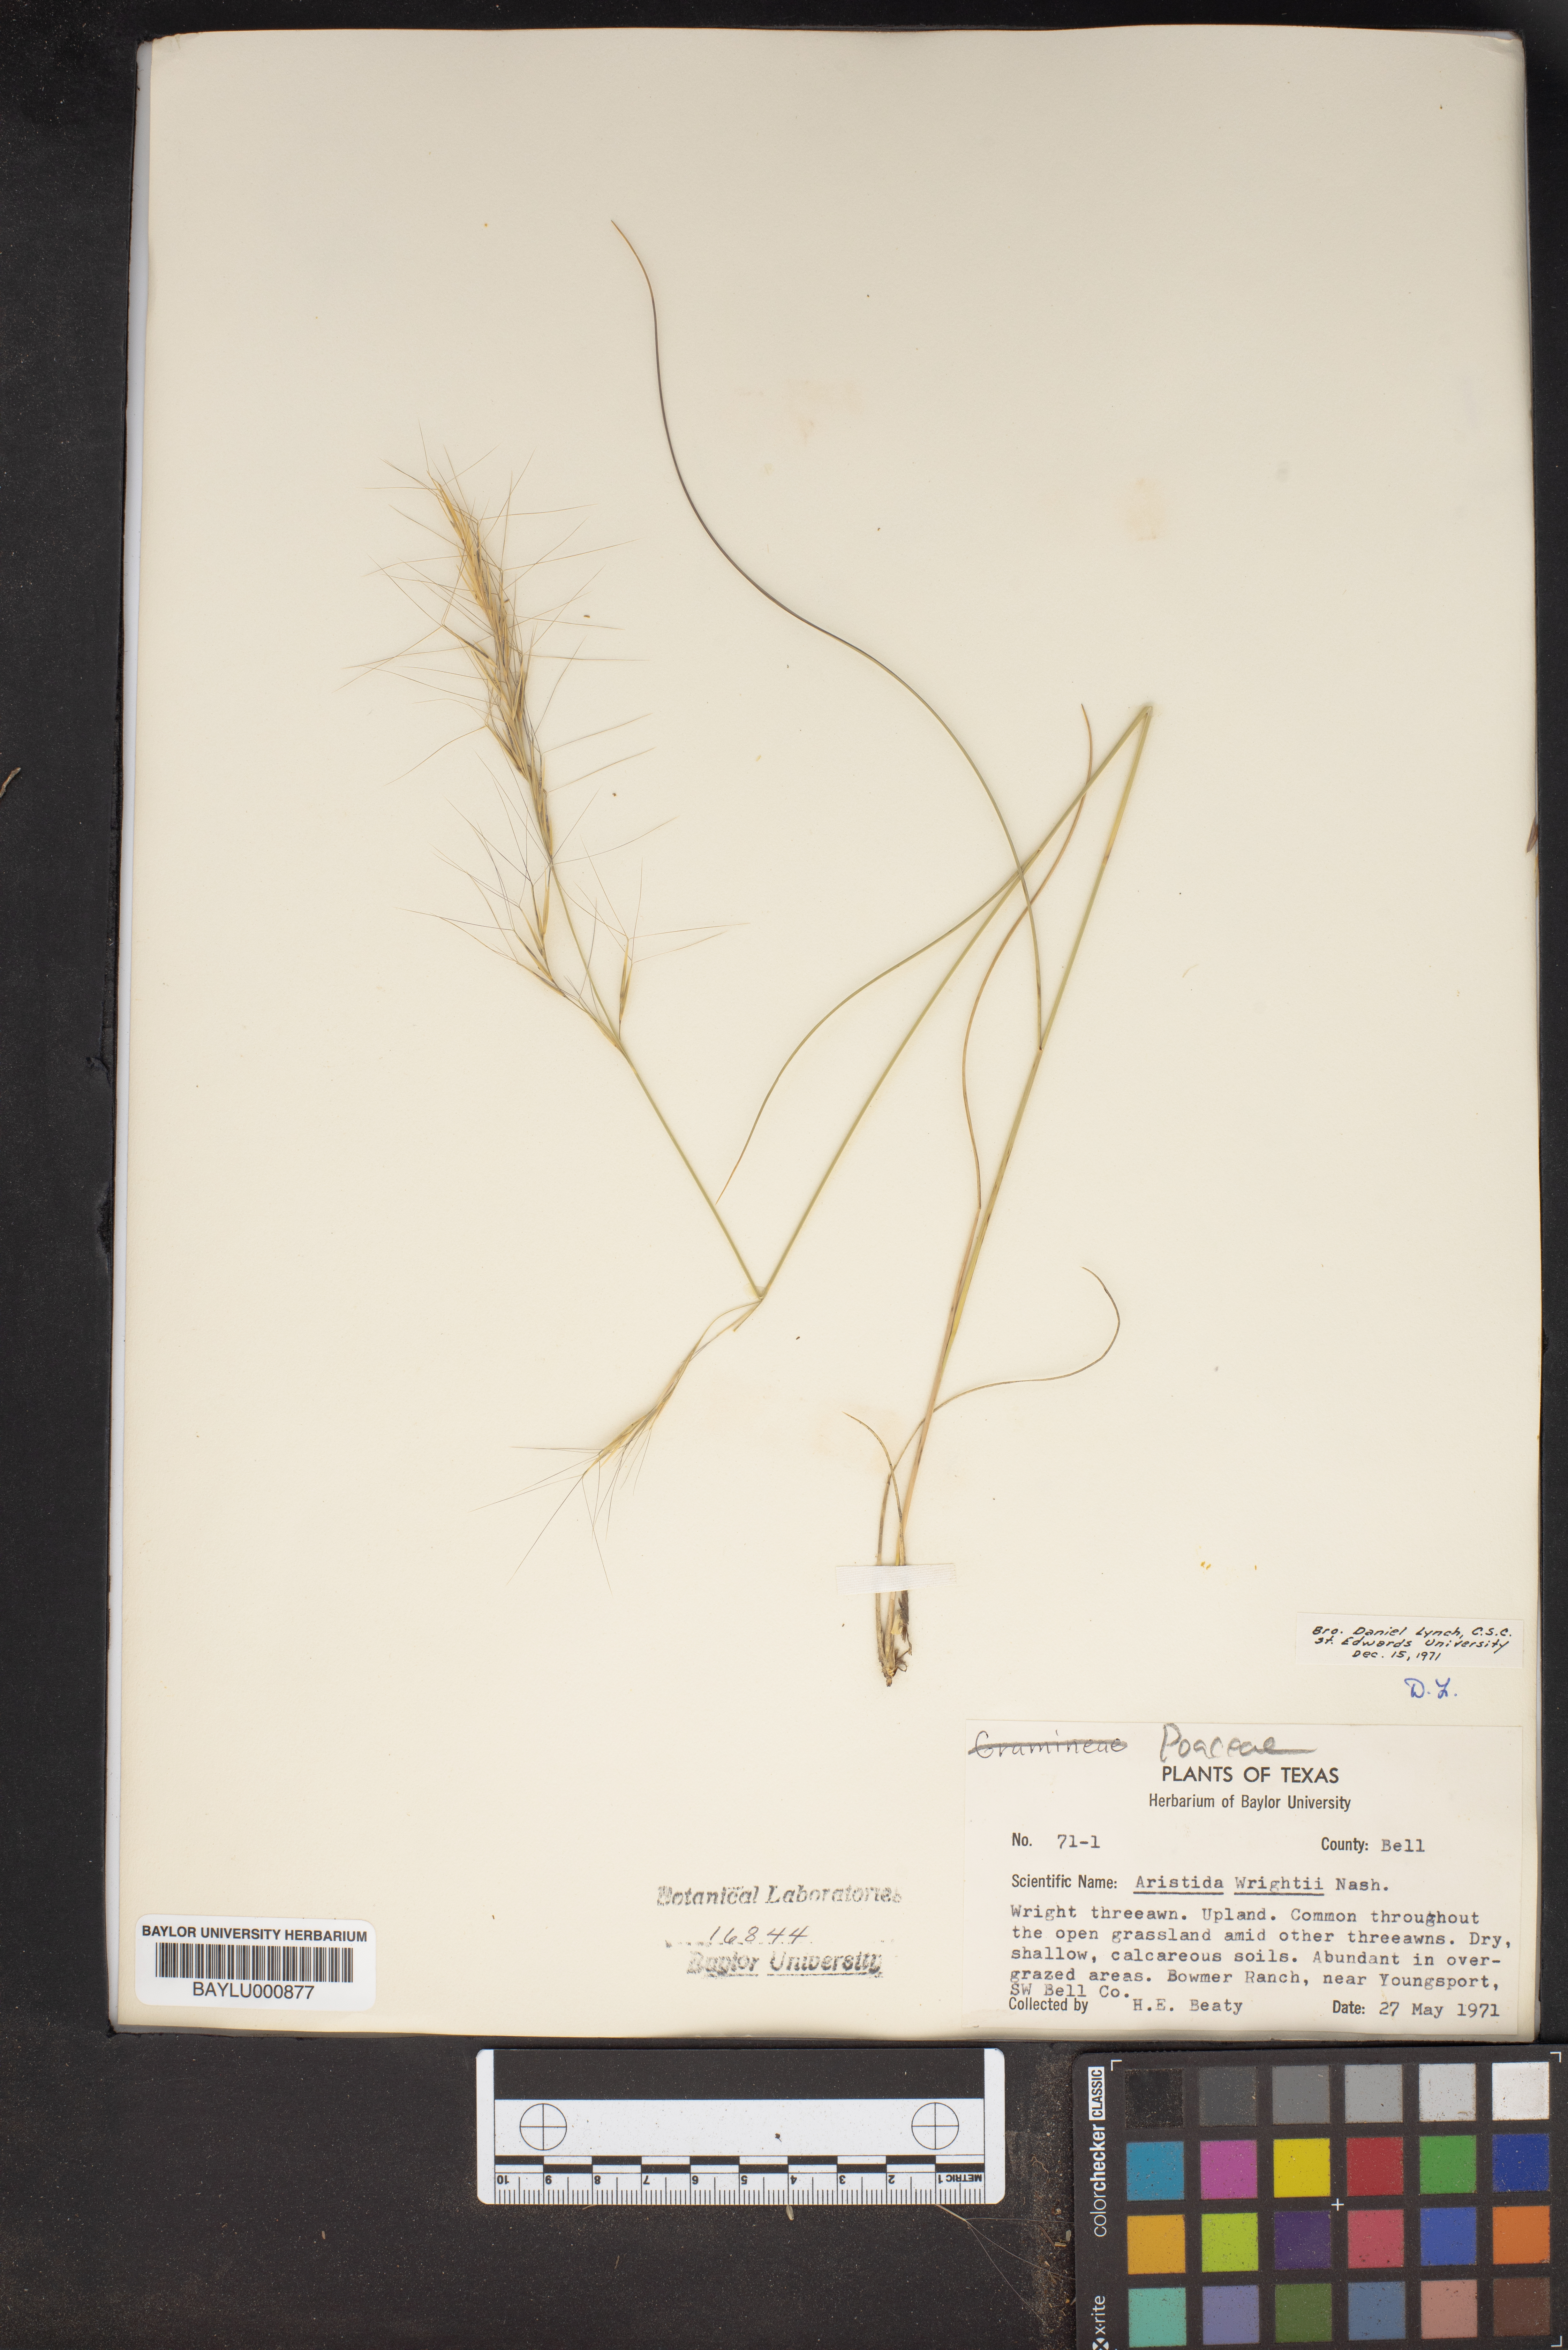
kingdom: Plantae
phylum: Tracheophyta
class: Liliopsida
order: Poales
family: Poaceae
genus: Aristida
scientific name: Aristida wrightii
